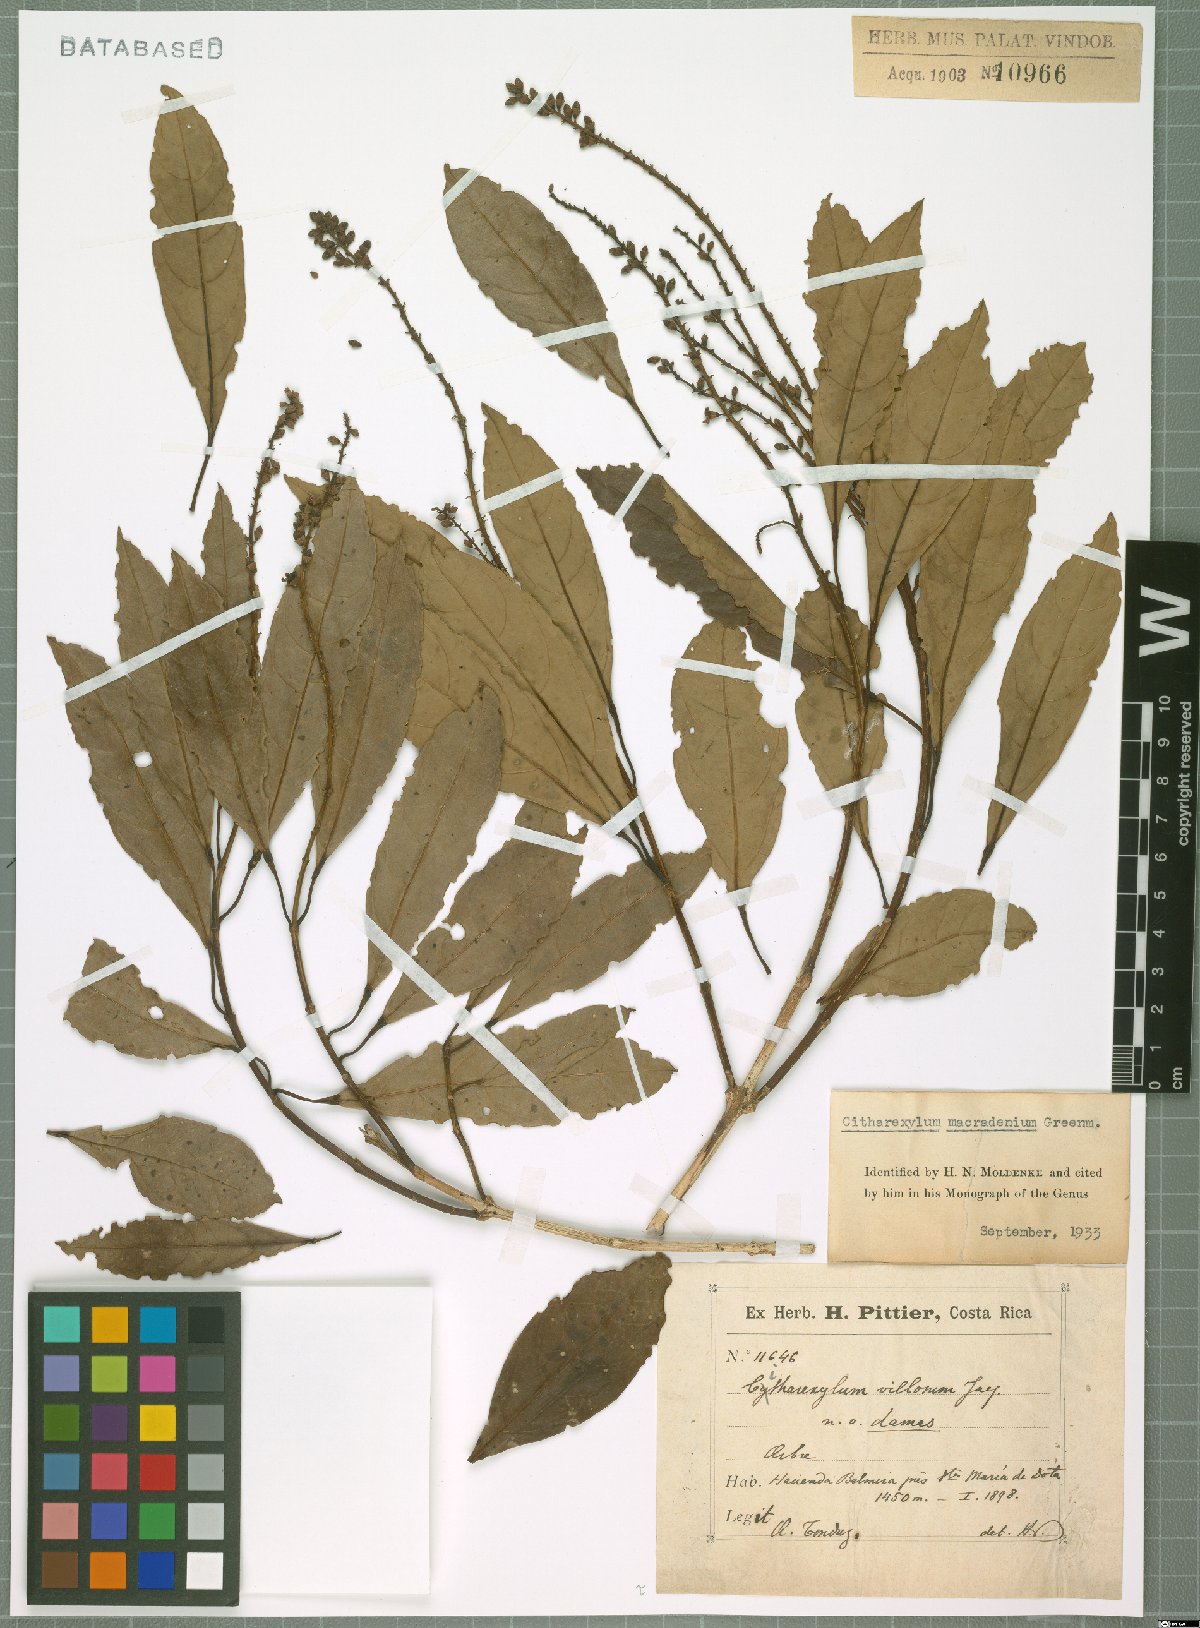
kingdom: Plantae
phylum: Tracheophyta
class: Magnoliopsida
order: Lamiales
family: Verbenaceae
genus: Citharexylum
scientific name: Citharexylum macradenium
